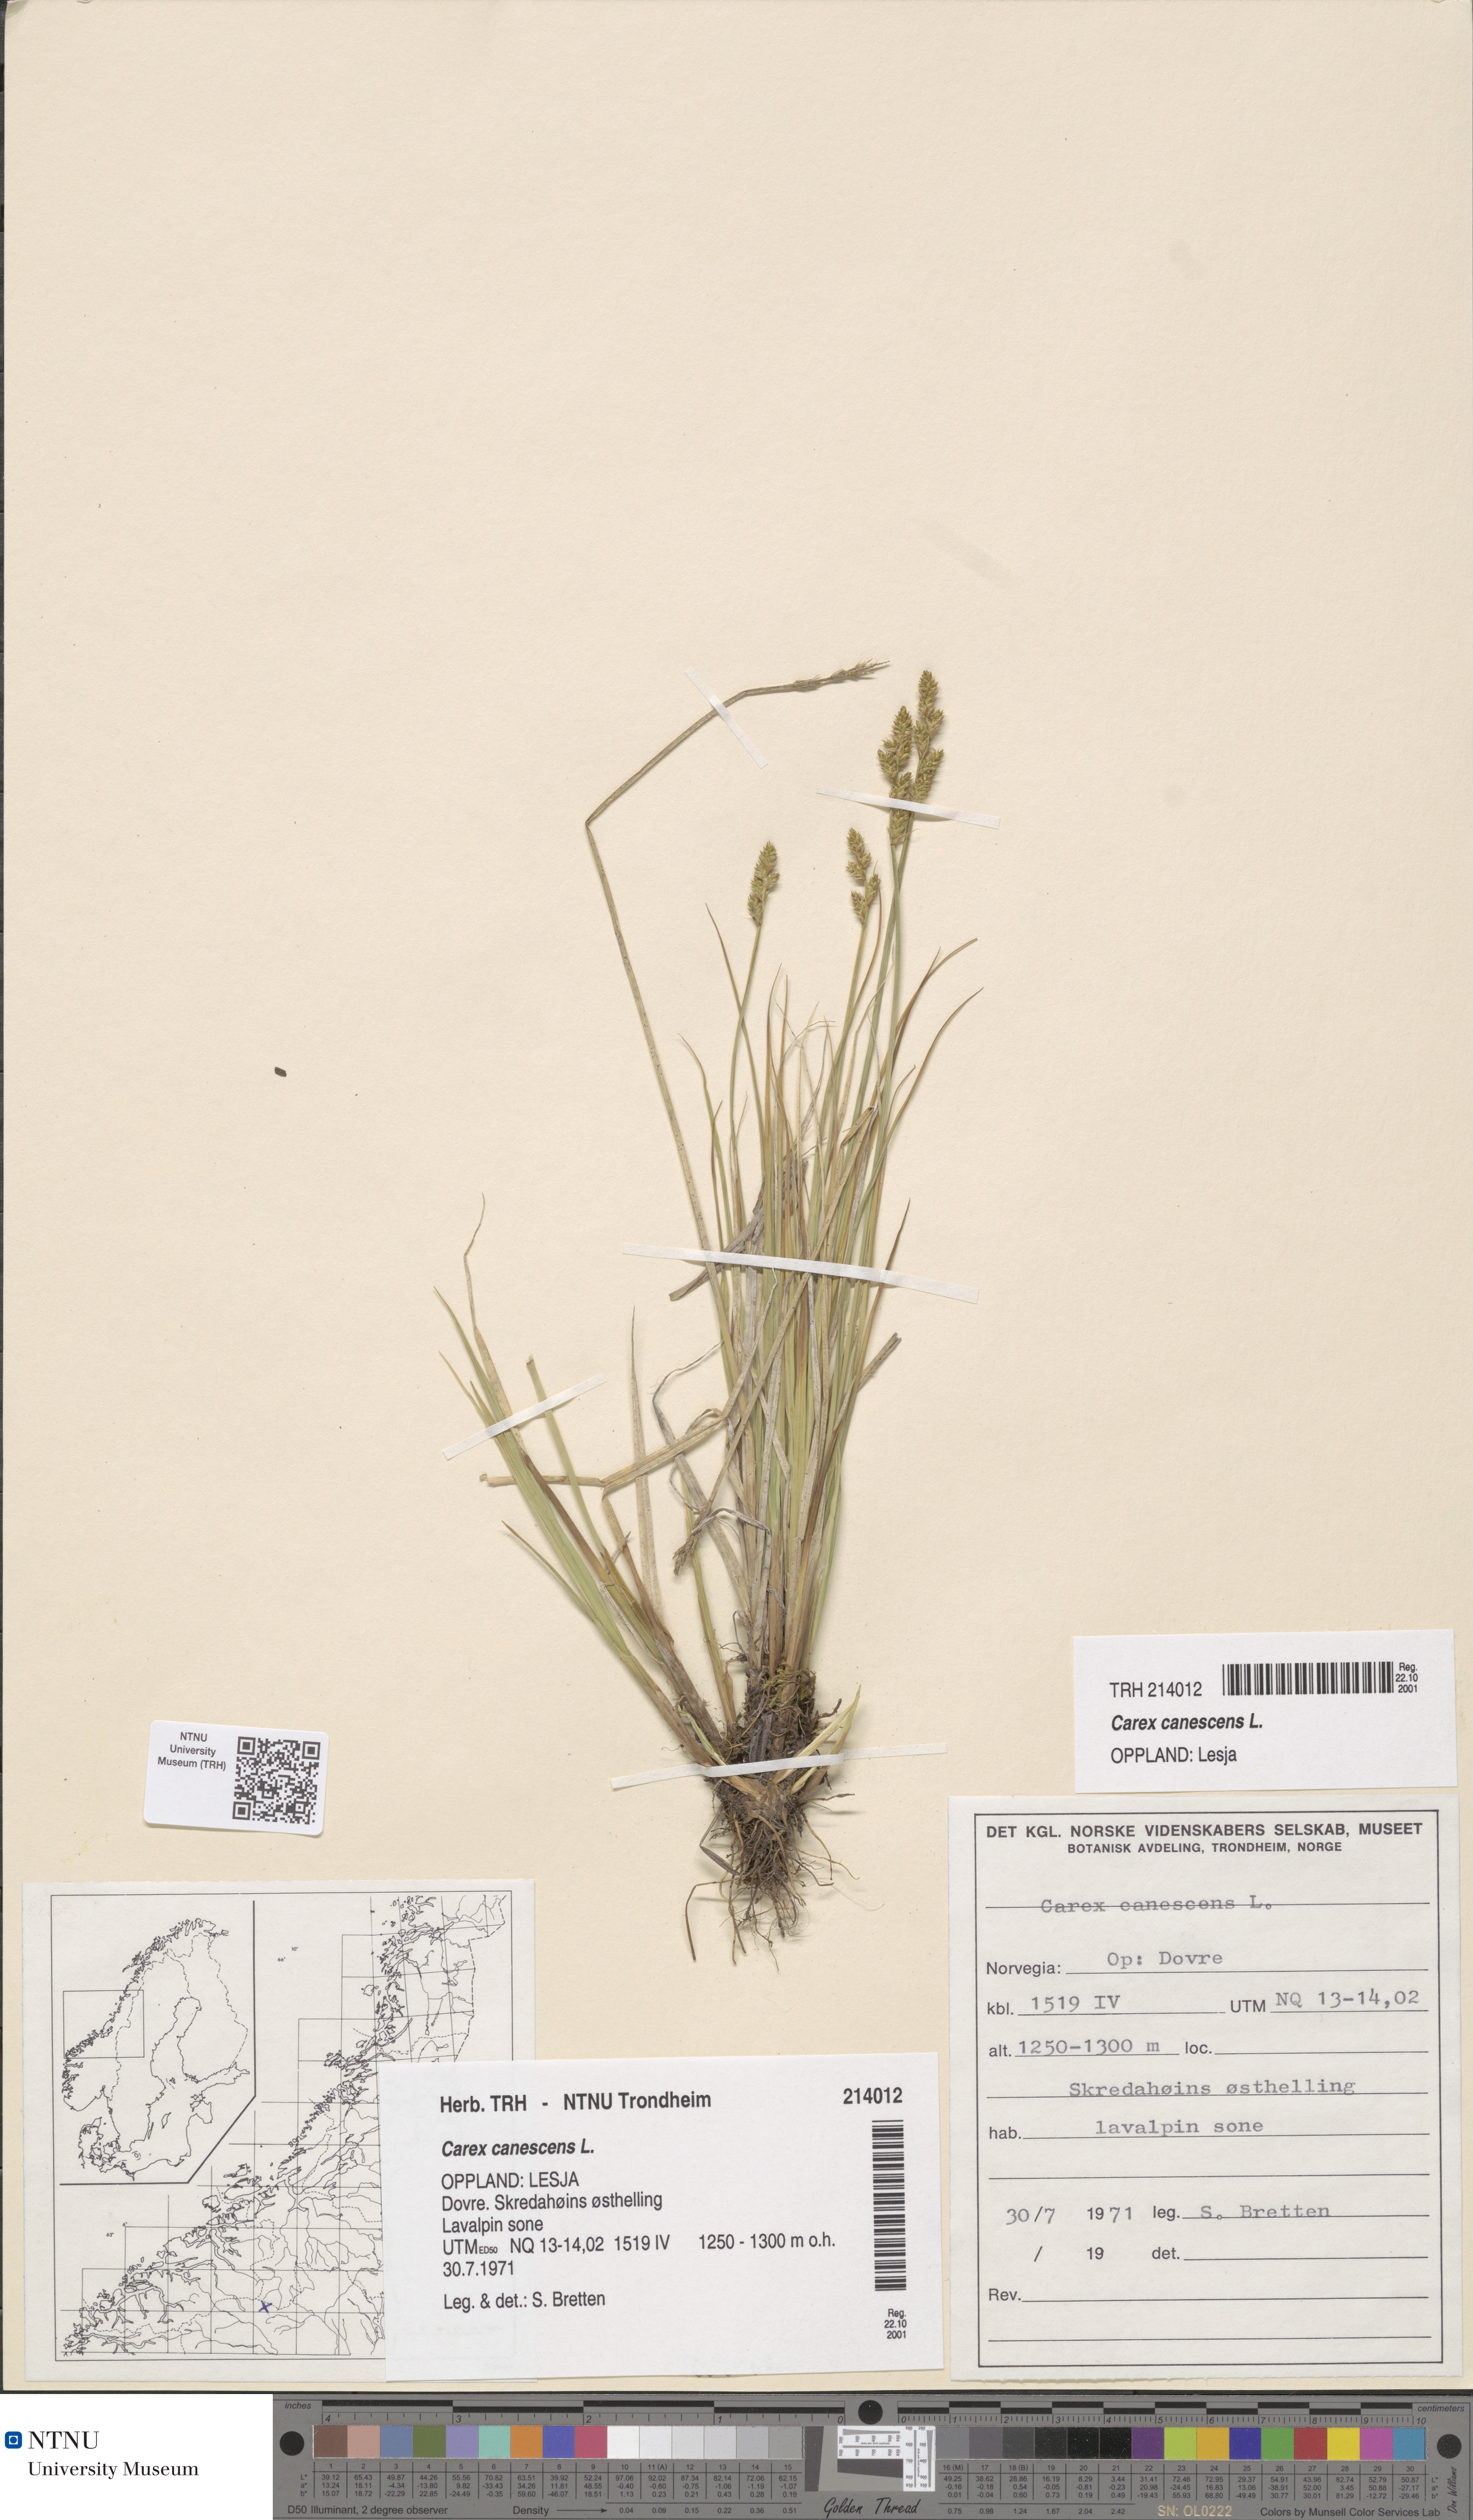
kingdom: Plantae
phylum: Tracheophyta
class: Liliopsida
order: Poales
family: Cyperaceae
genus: Carex
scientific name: Carex canescens
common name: White sedge
